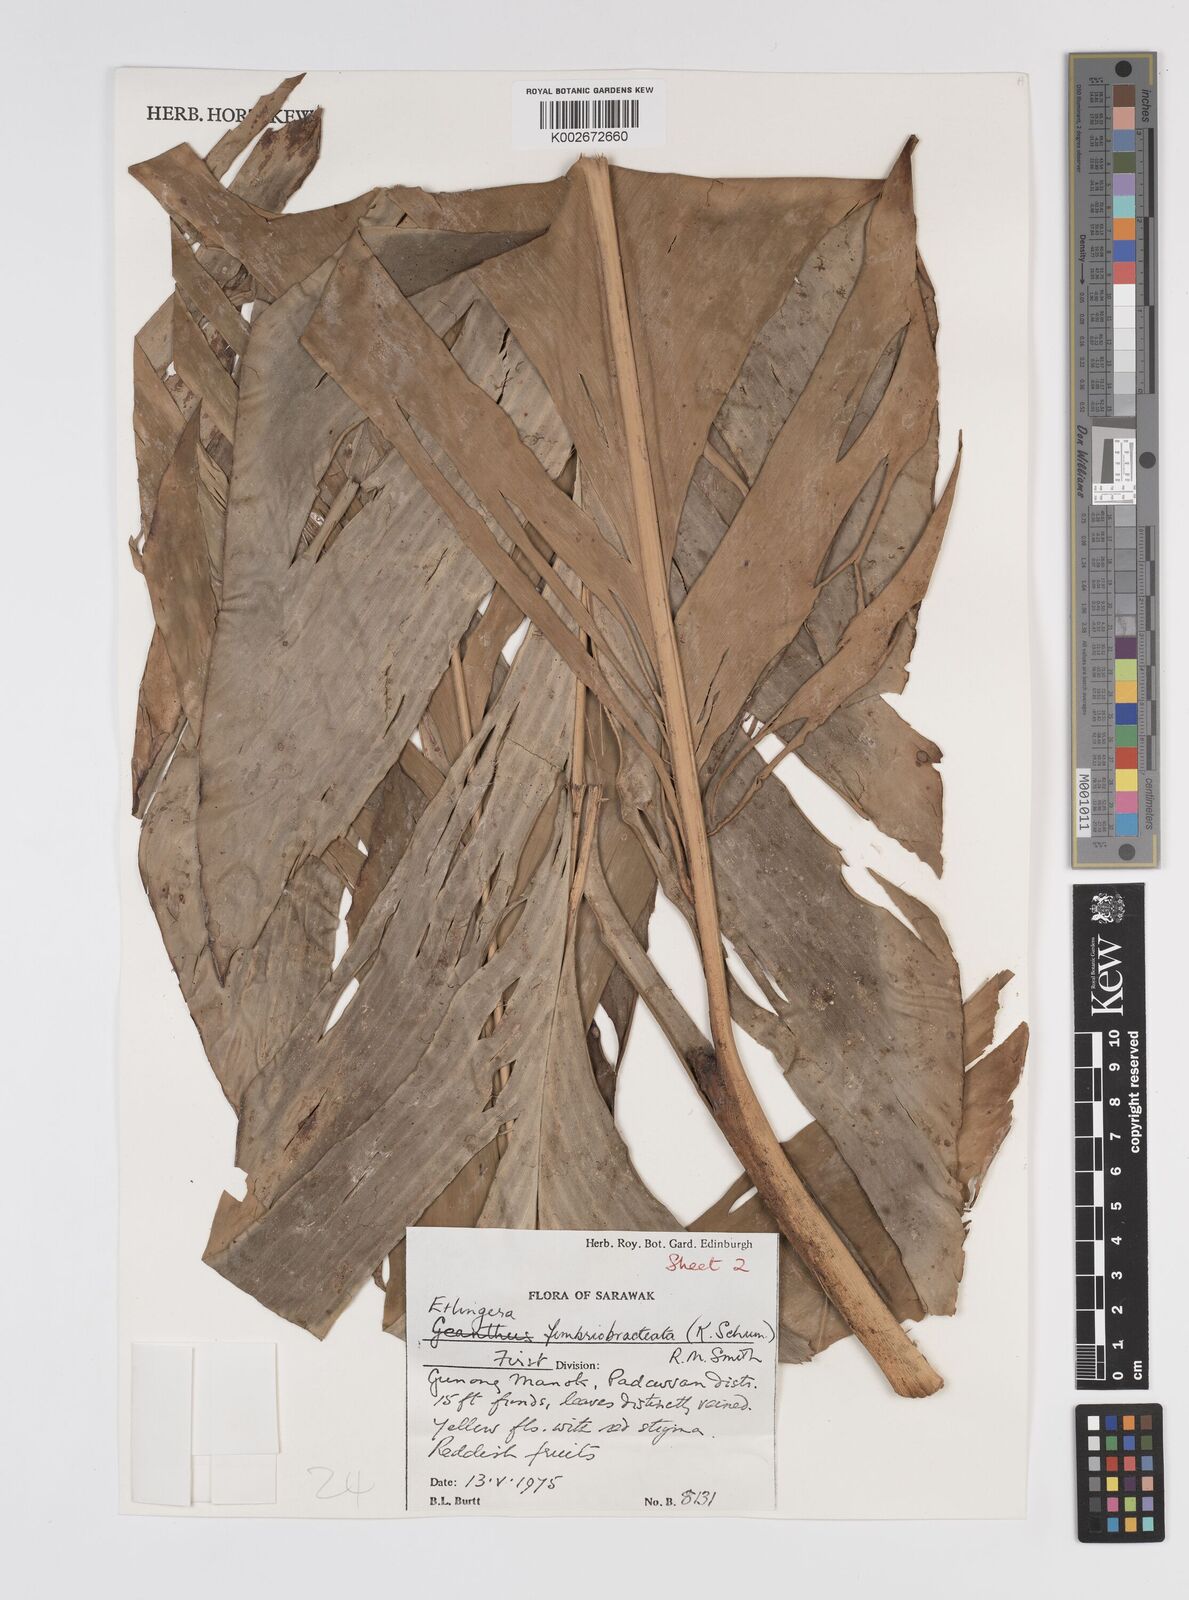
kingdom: Plantae
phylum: Tracheophyta
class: Liliopsida
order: Zingiberales
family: Zingiberaceae
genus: Etlingera
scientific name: Etlingera fimbriobracteata
